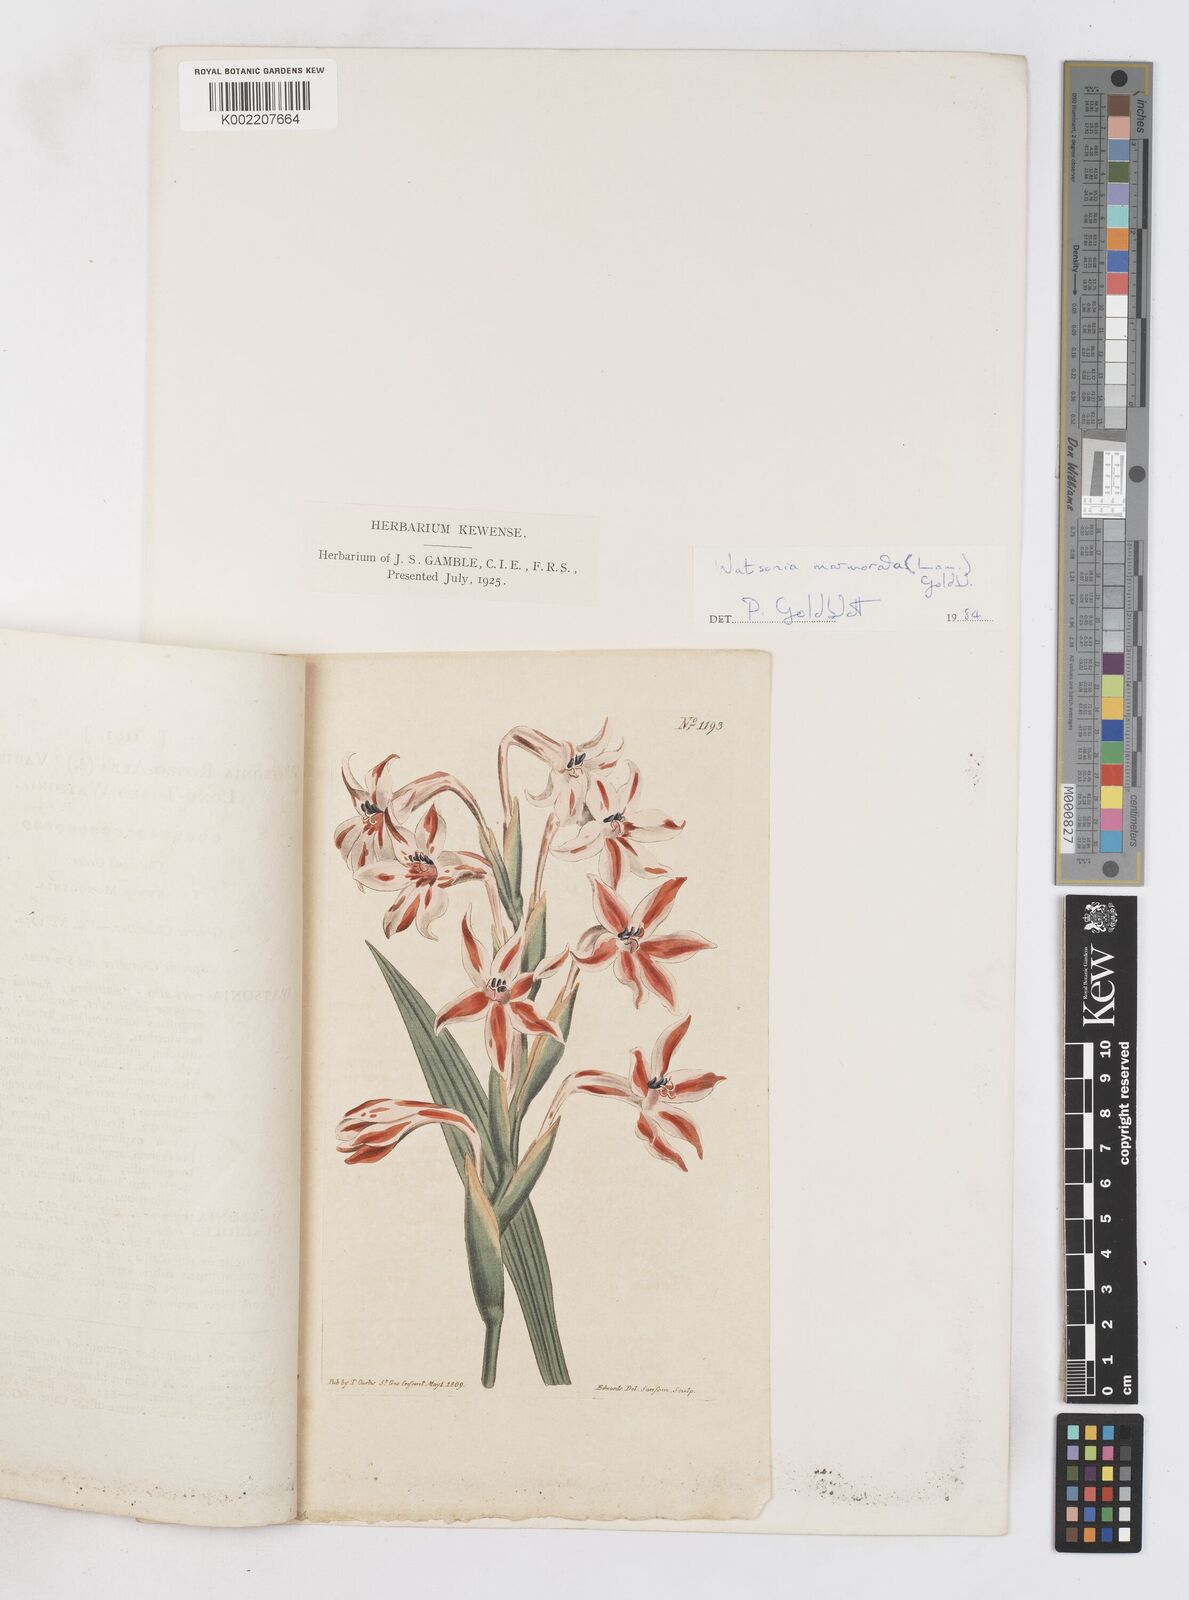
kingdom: Plantae
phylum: Tracheophyta
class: Liliopsida
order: Asparagales
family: Iridaceae
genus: Watsonia
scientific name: Watsonia humilis
